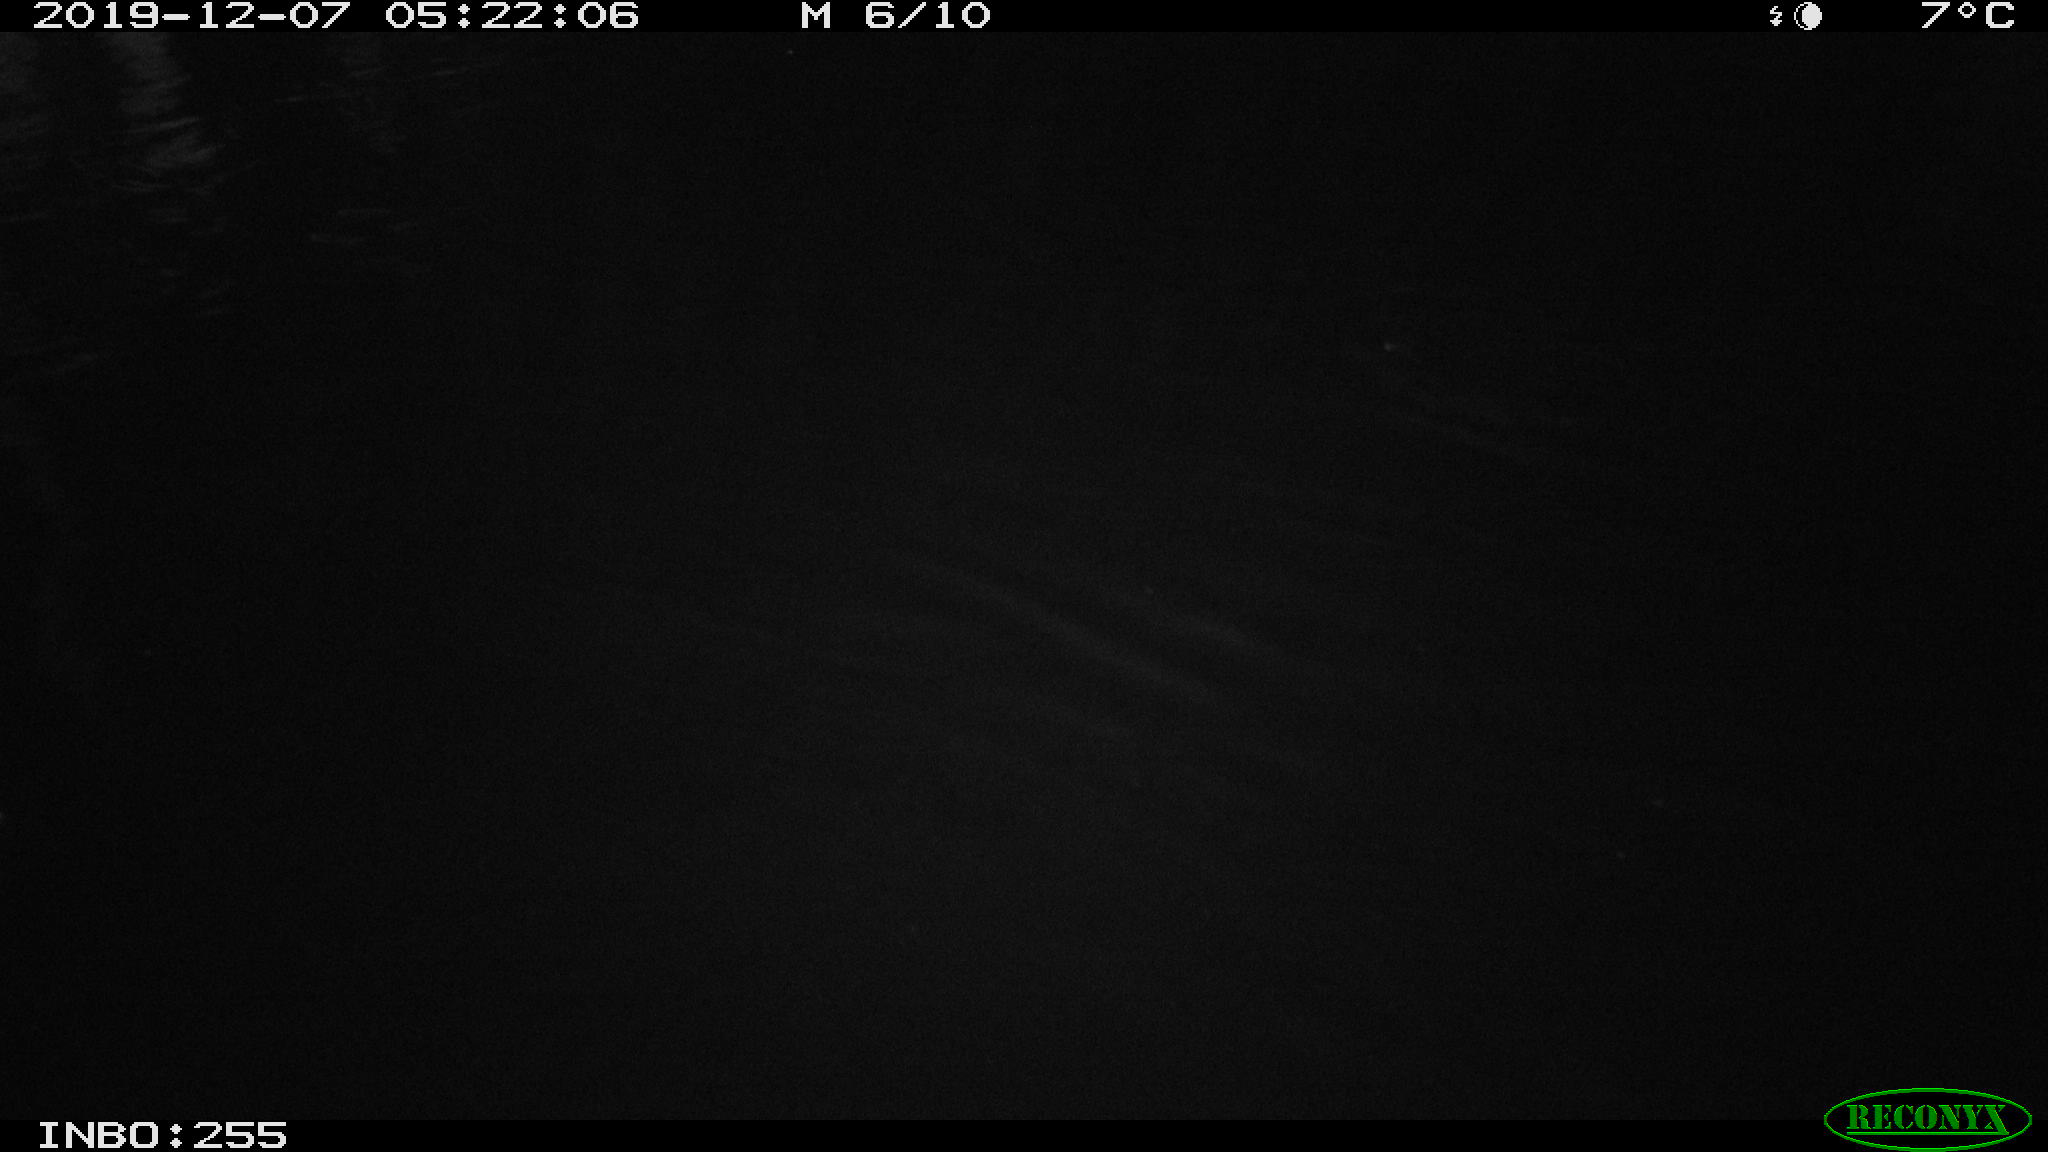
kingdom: Animalia
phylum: Chordata
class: Aves
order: Anseriformes
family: Anatidae
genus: Anas
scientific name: Anas platyrhynchos
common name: Mallard
